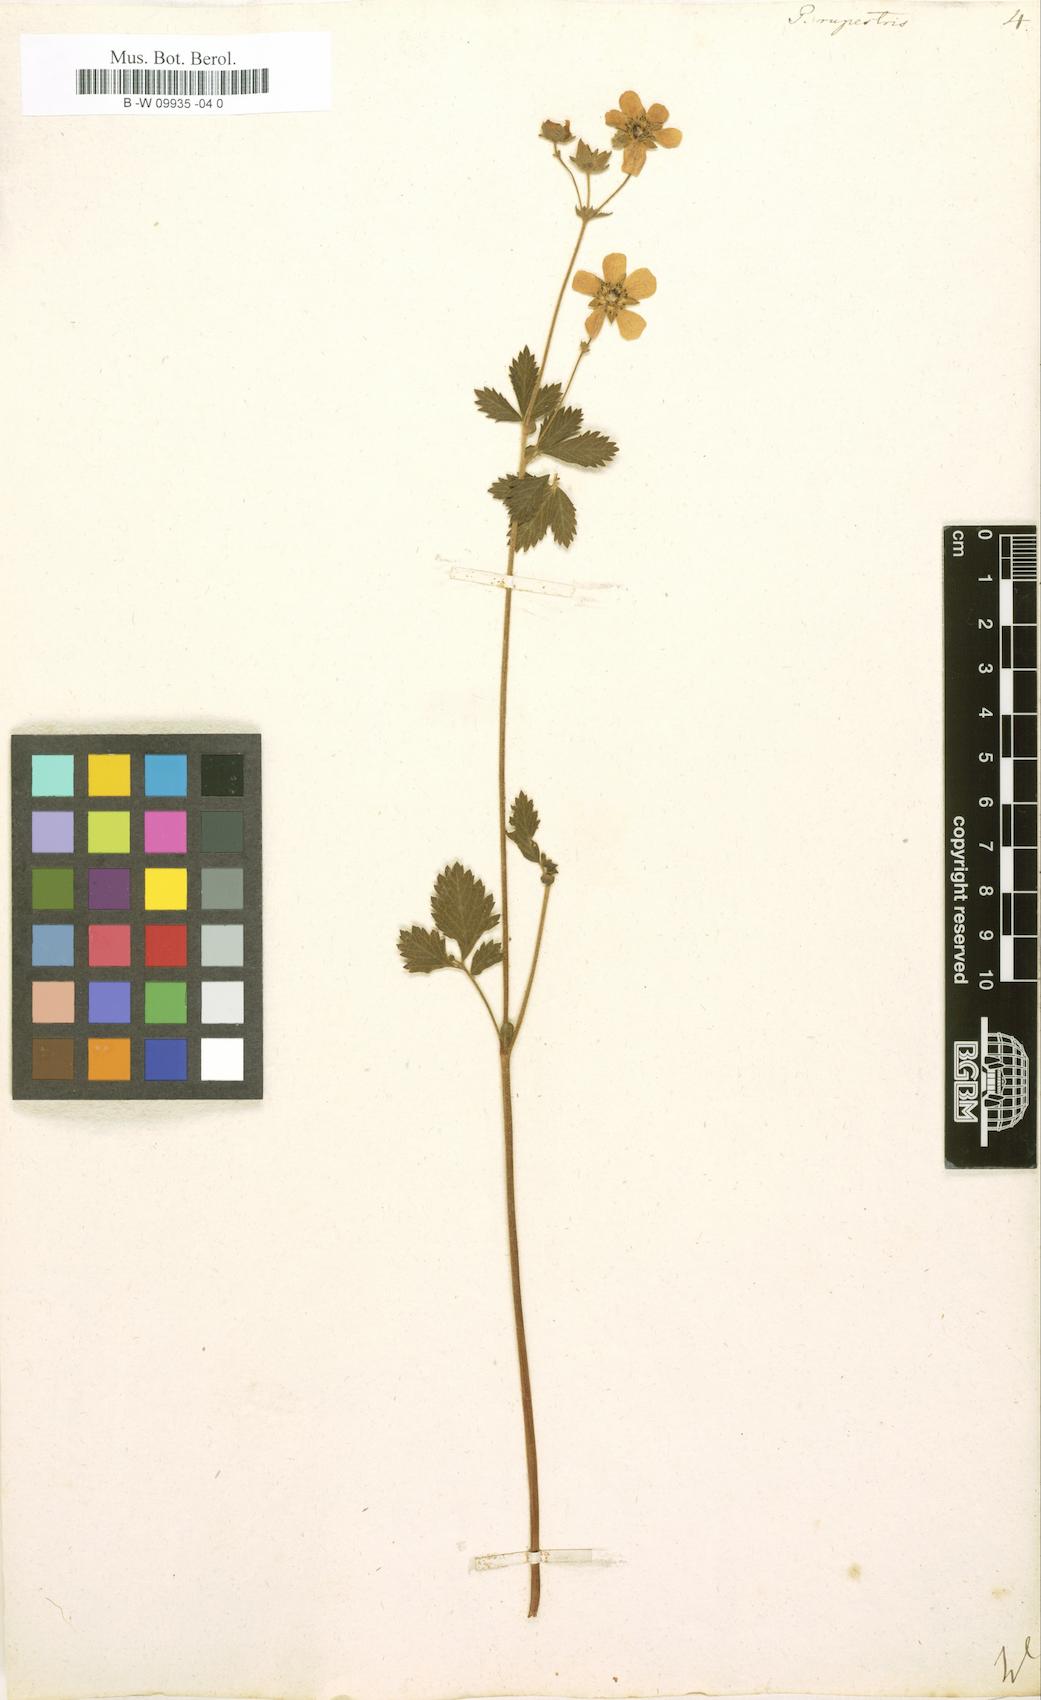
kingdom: Plantae
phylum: Tracheophyta
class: Magnoliopsida
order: Rosales
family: Rosaceae
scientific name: Rosaceae
